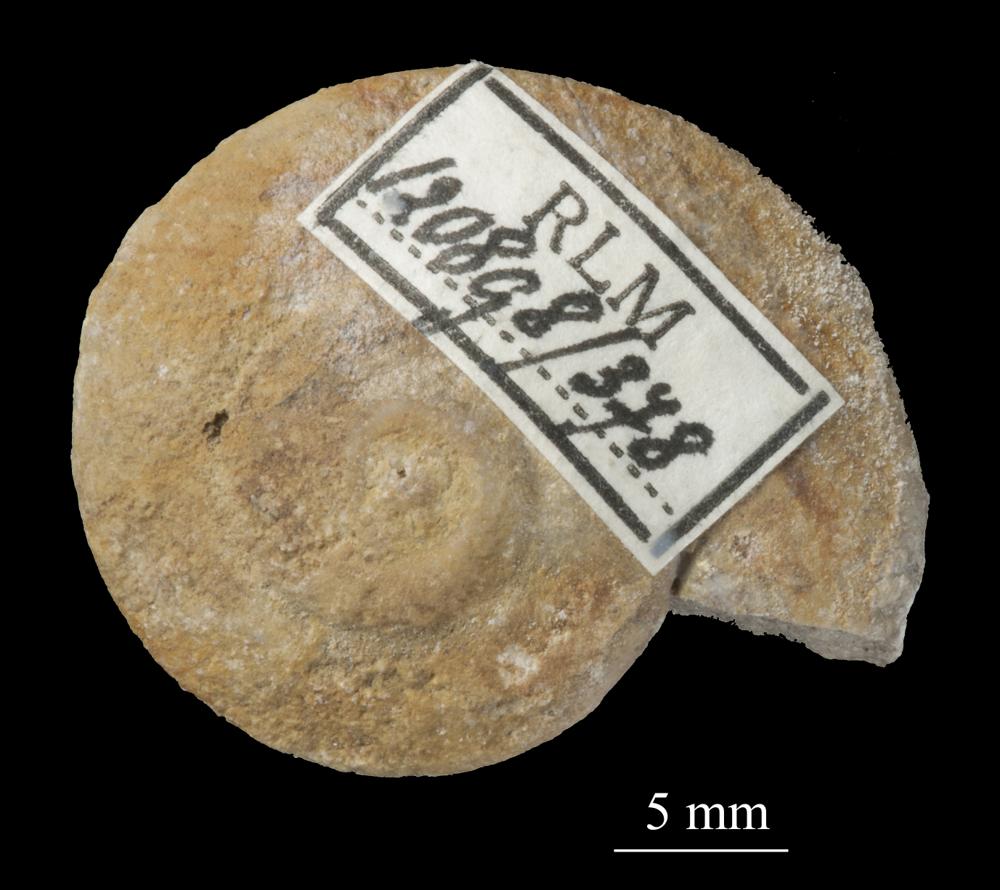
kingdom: Animalia
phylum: Mollusca
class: Gastropoda
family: Lesueurillidae
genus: Pararaphistoma
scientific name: Pararaphistoma Helicites qualteriata
